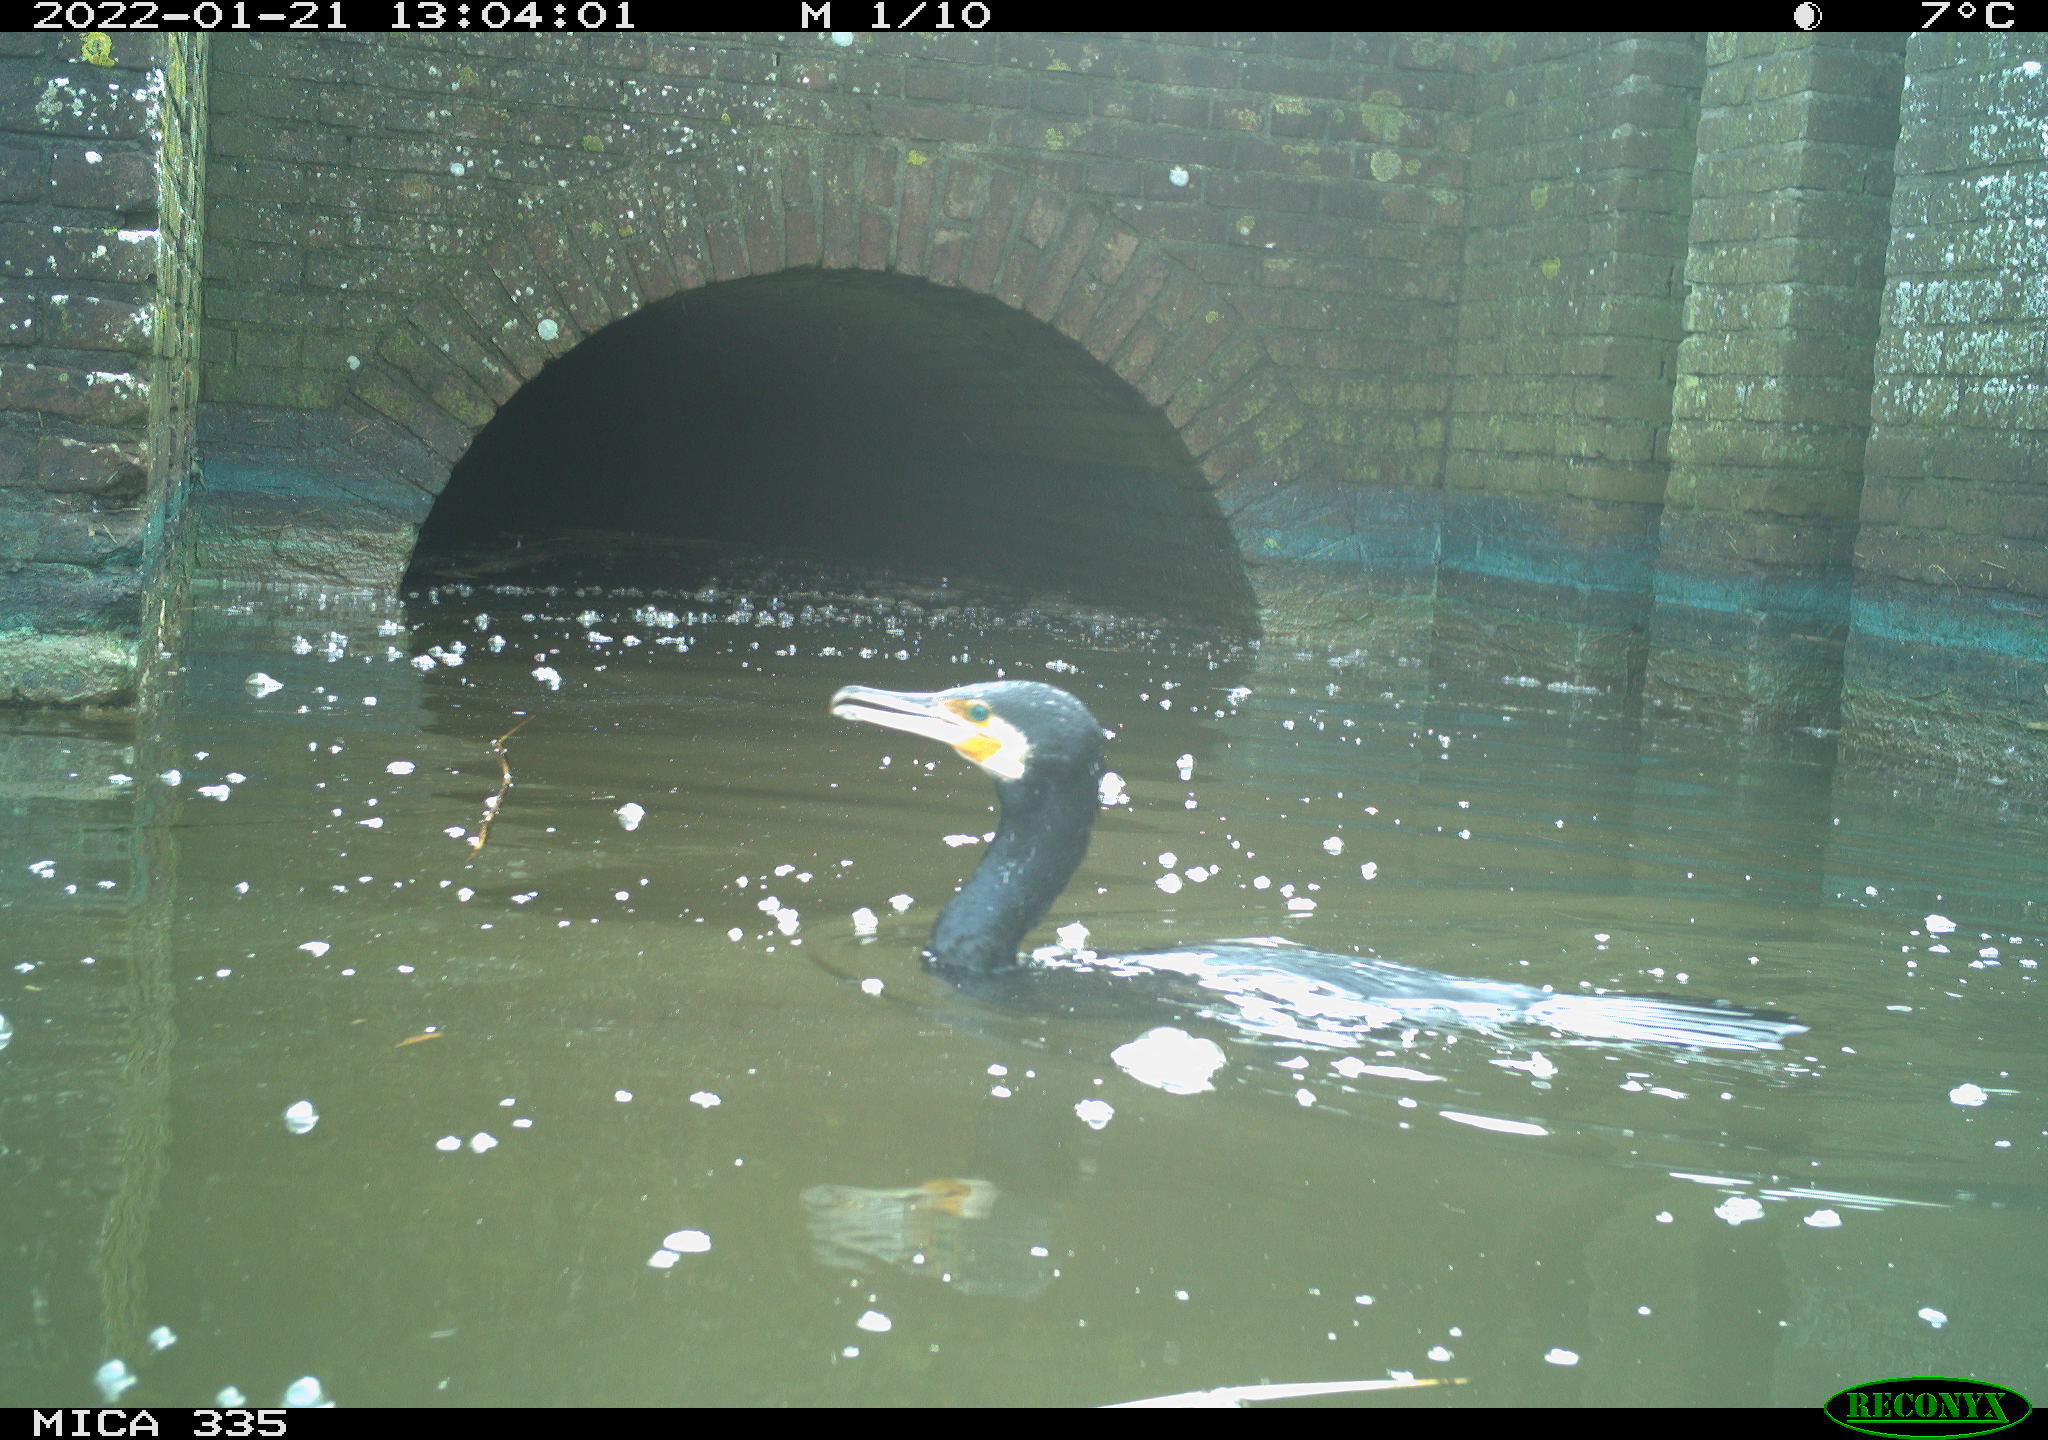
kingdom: Animalia
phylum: Chordata
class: Aves
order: Suliformes
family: Phalacrocoracidae
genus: Phalacrocorax
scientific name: Phalacrocorax carbo
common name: Great cormorant
